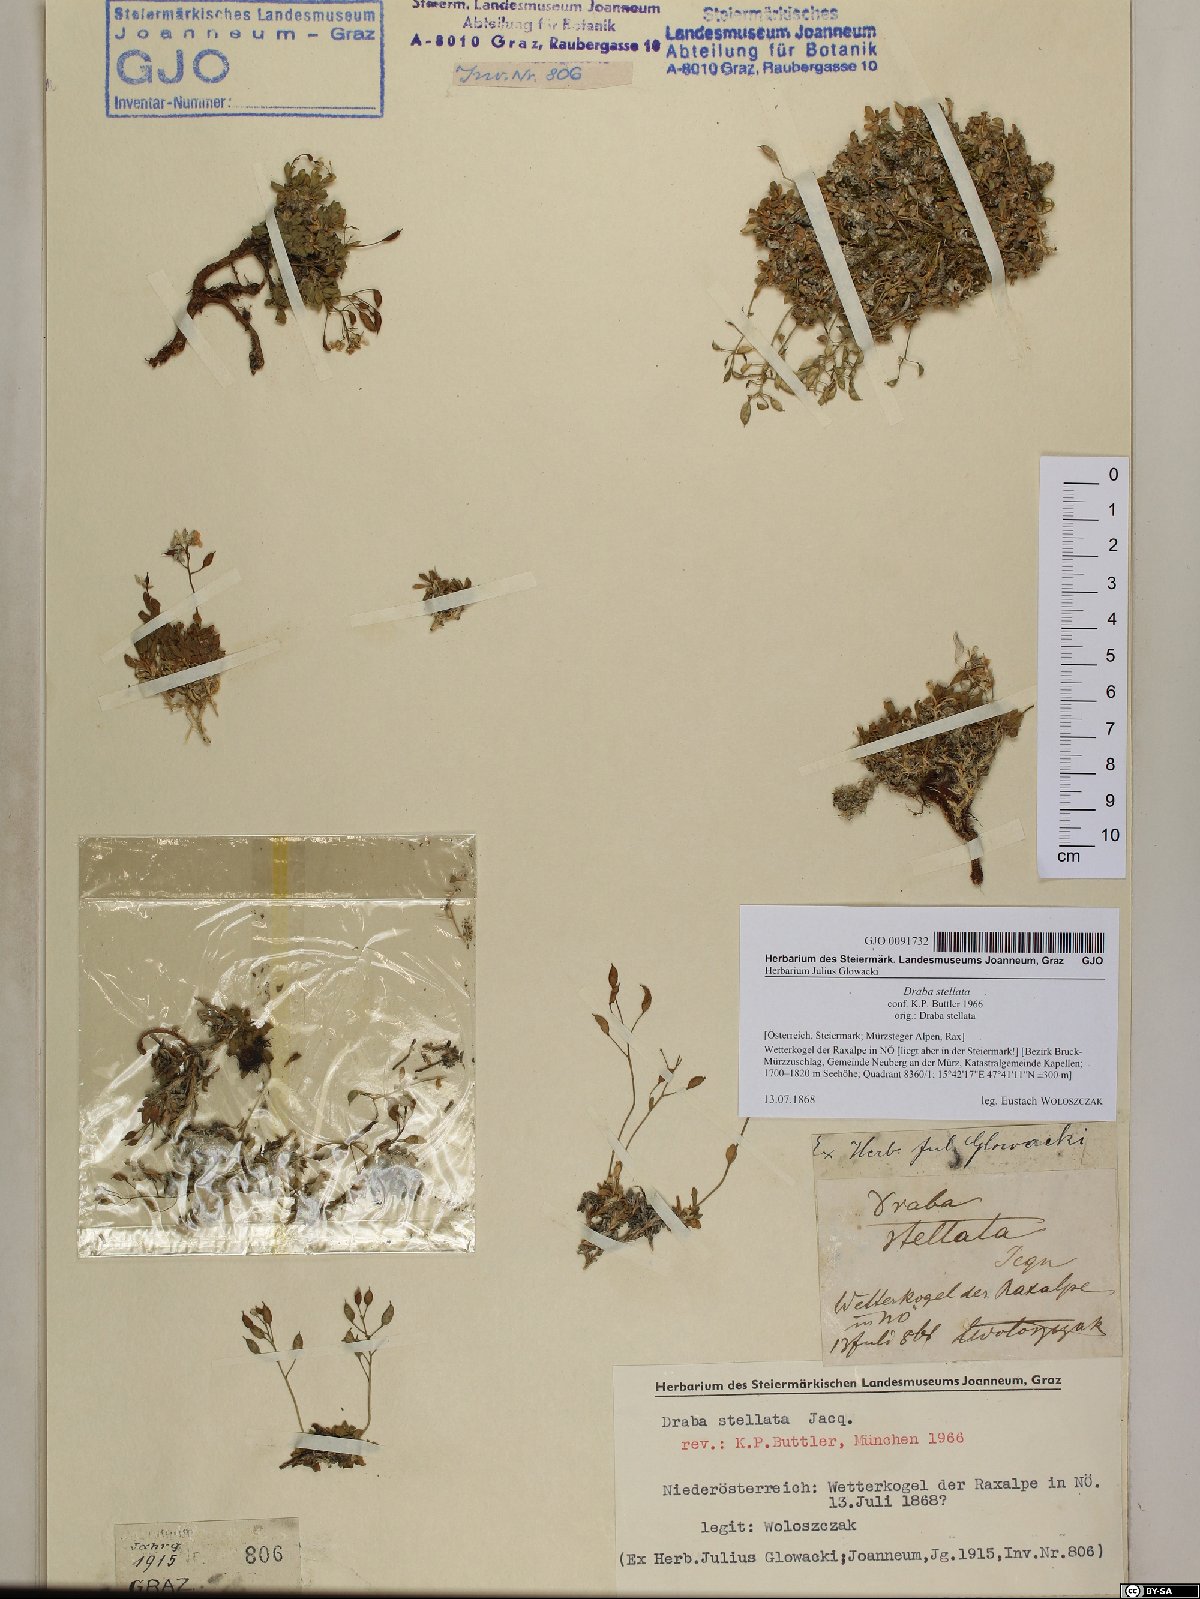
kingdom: Plantae
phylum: Tracheophyta
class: Magnoliopsida
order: Brassicales
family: Brassicaceae
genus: Draba
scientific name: Draba stellata
